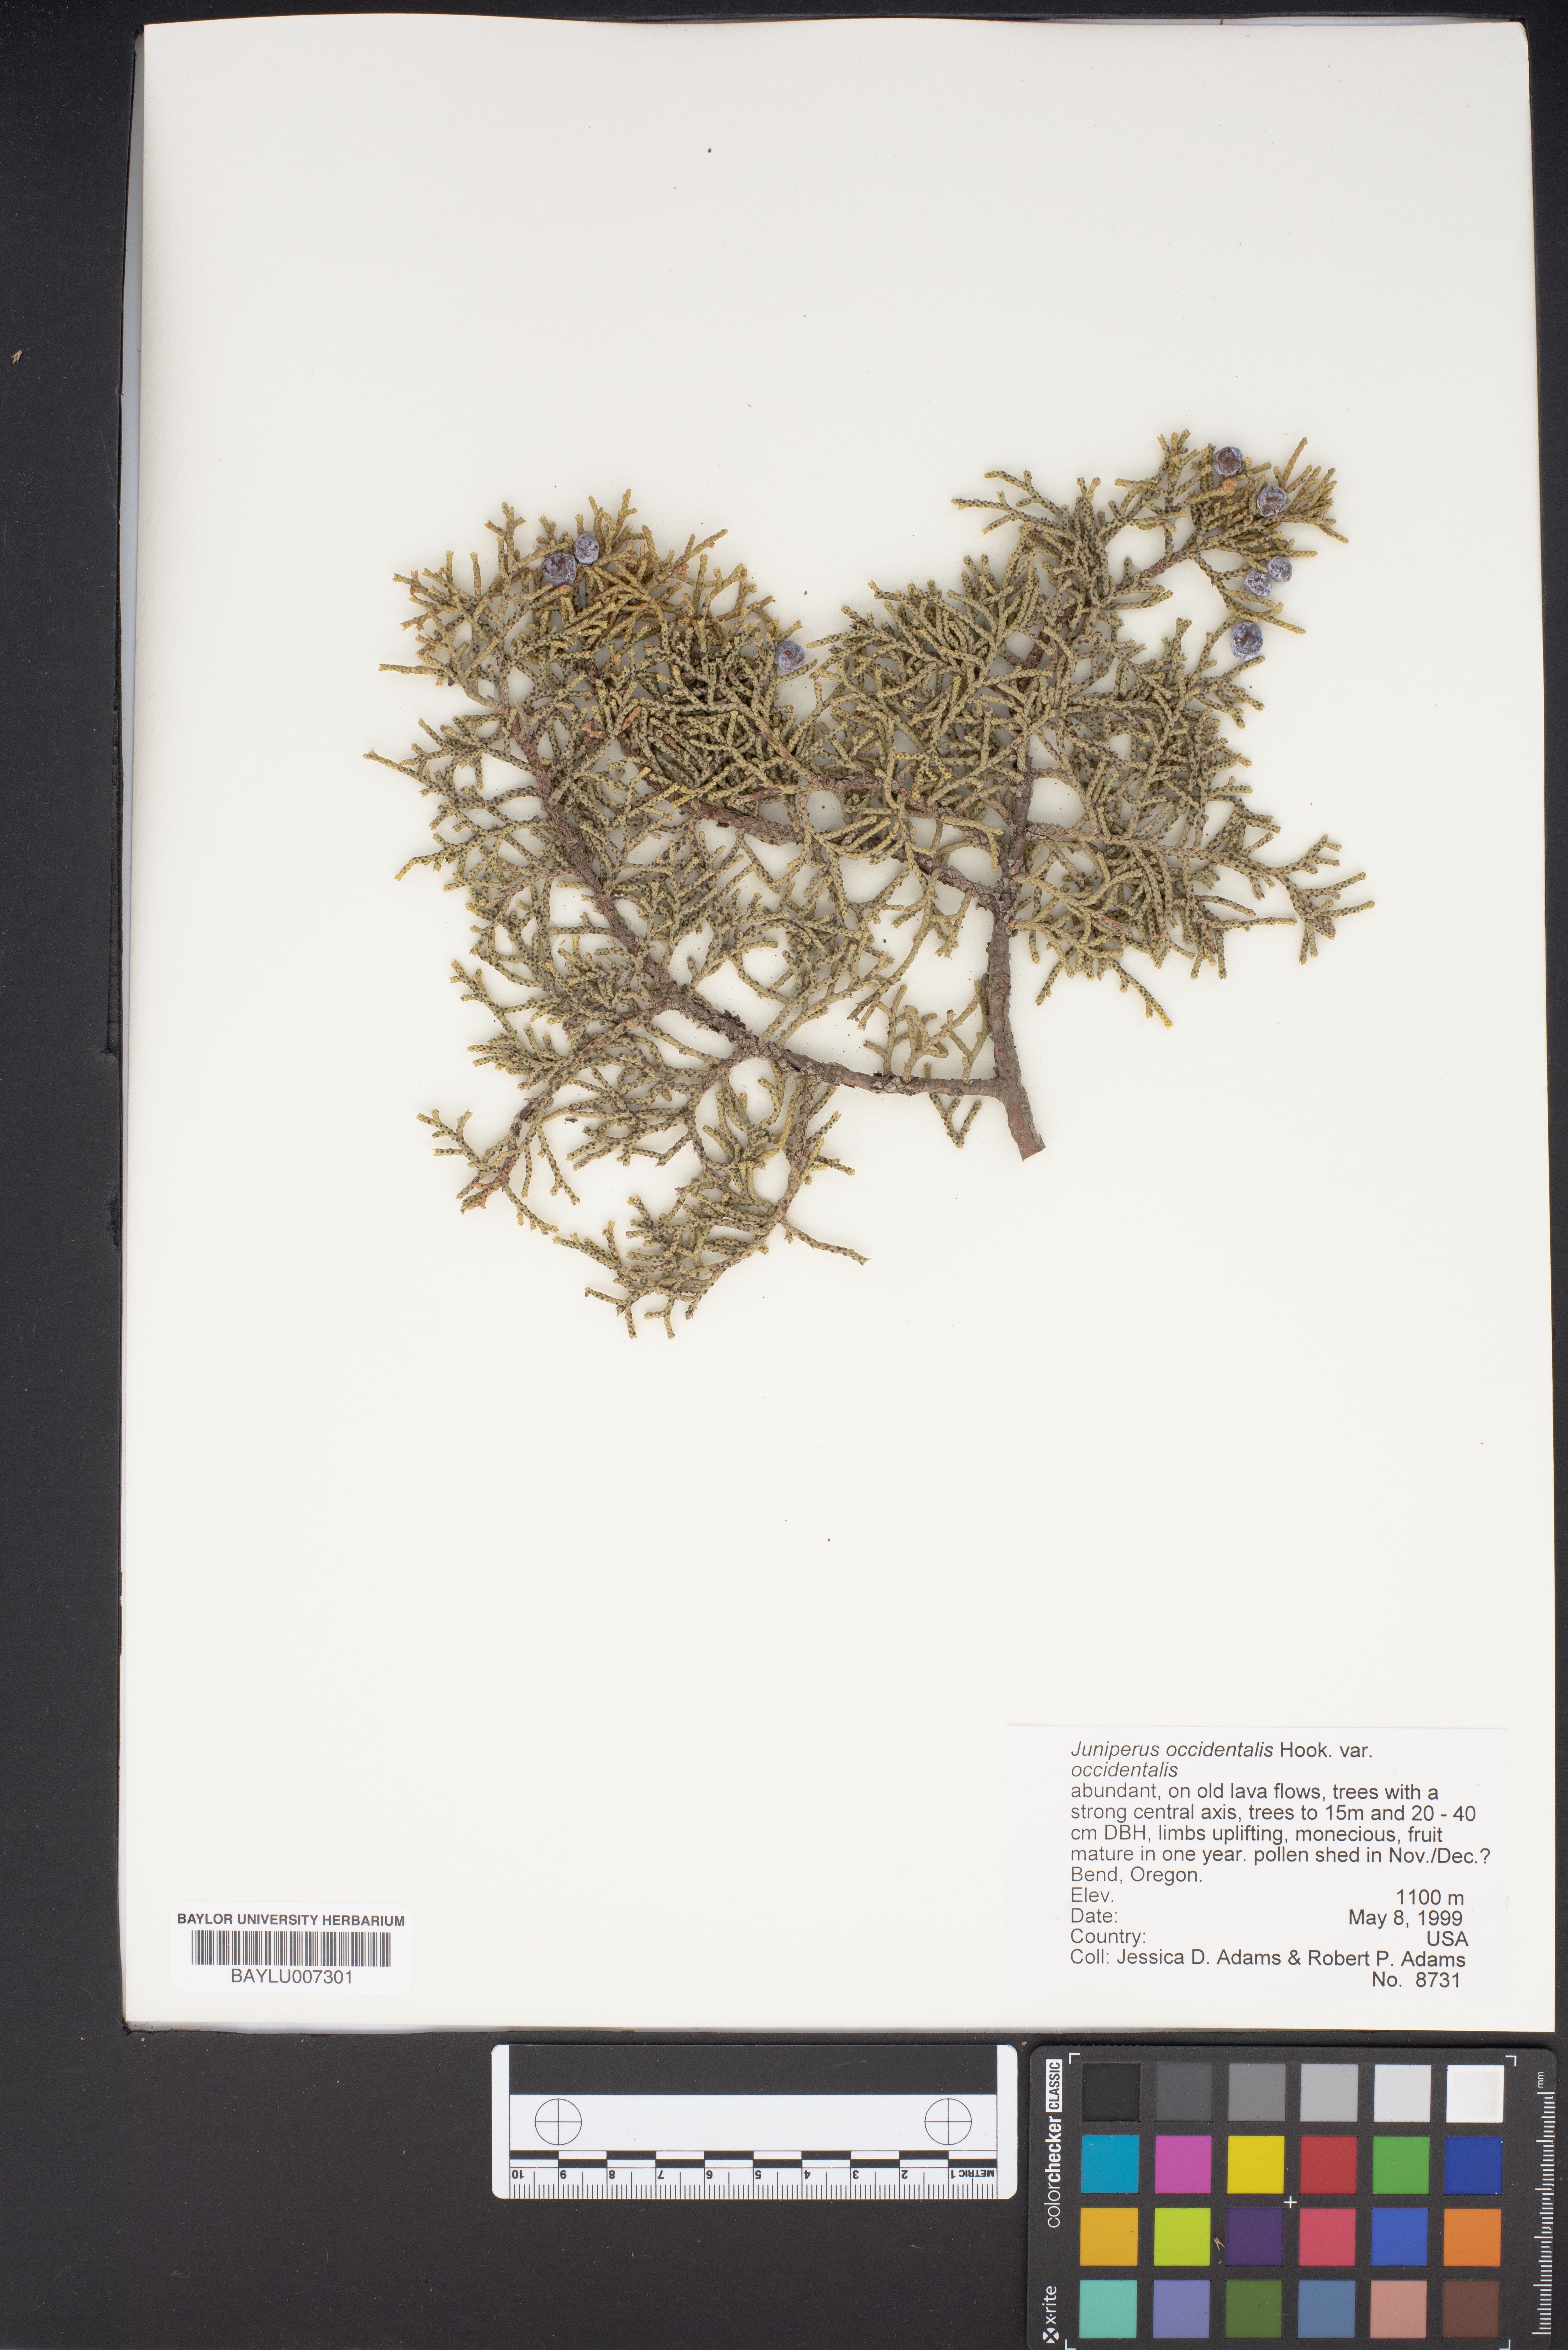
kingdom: Plantae
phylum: Tracheophyta
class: Pinopsida
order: Pinales
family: Cupressaceae
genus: Juniperus
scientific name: Juniperus occidentalis
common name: Western juniper
